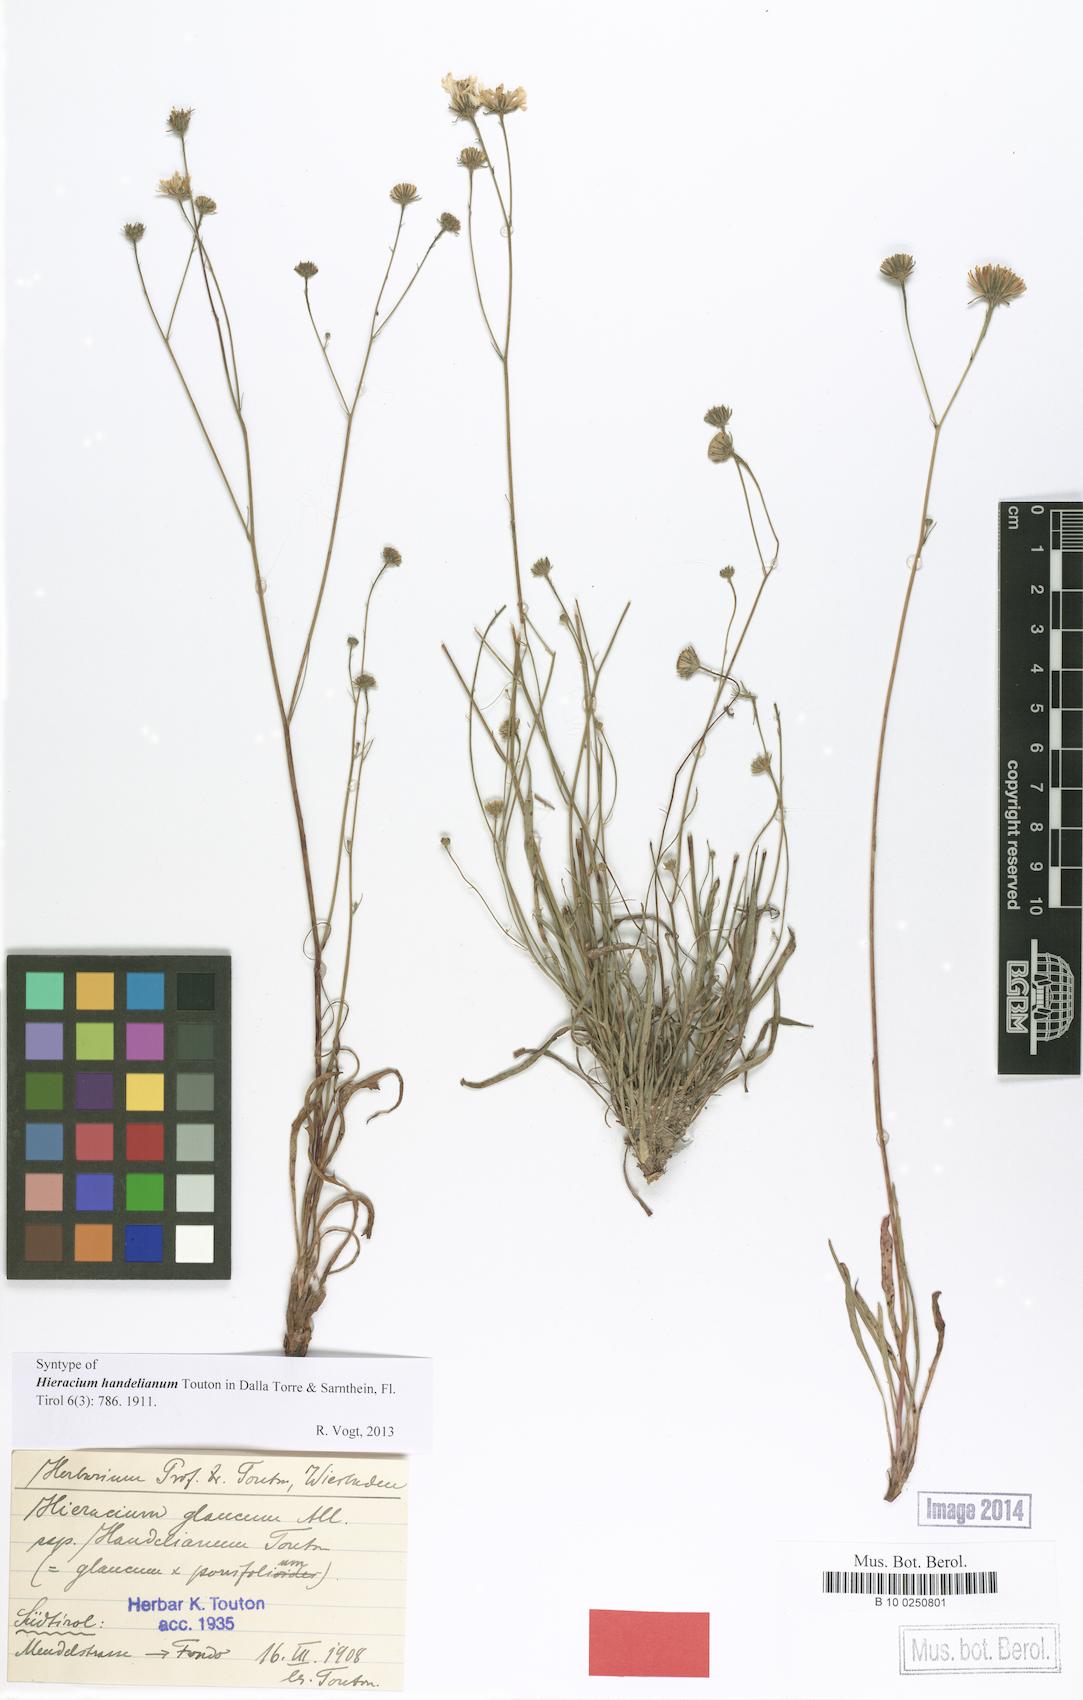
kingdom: Plantae
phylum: Tracheophyta
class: Magnoliopsida
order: Asterales
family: Asteraceae
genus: Hieracium
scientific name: Hieracium handelianum
